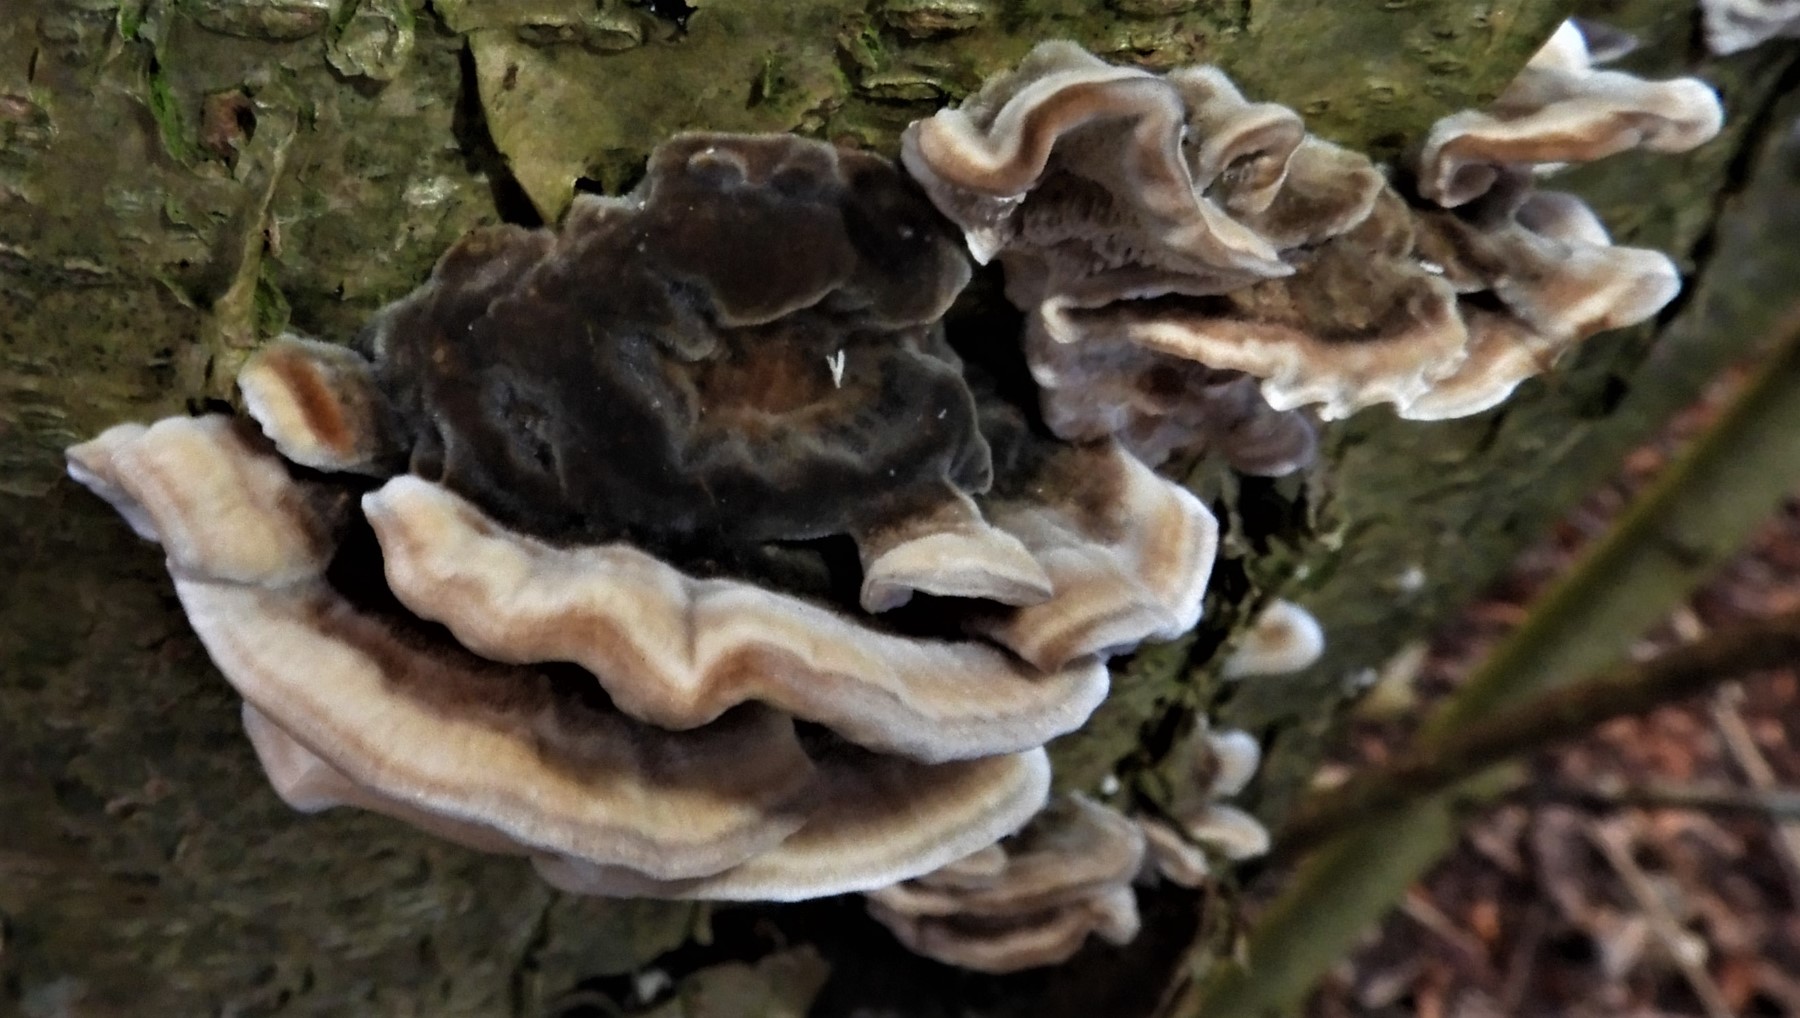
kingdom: Fungi
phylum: Basidiomycota
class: Agaricomycetes
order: Polyporales
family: Polyporaceae
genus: Trametes
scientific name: Trametes versicolor
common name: broget læderporesvamp
